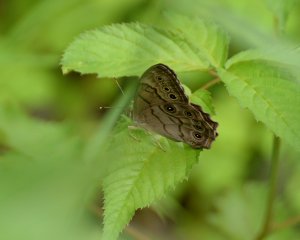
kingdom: Animalia
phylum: Arthropoda
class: Insecta
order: Lepidoptera
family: Nymphalidae
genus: Lethe
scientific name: Lethe anthedon
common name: Northern Pearly-Eye
